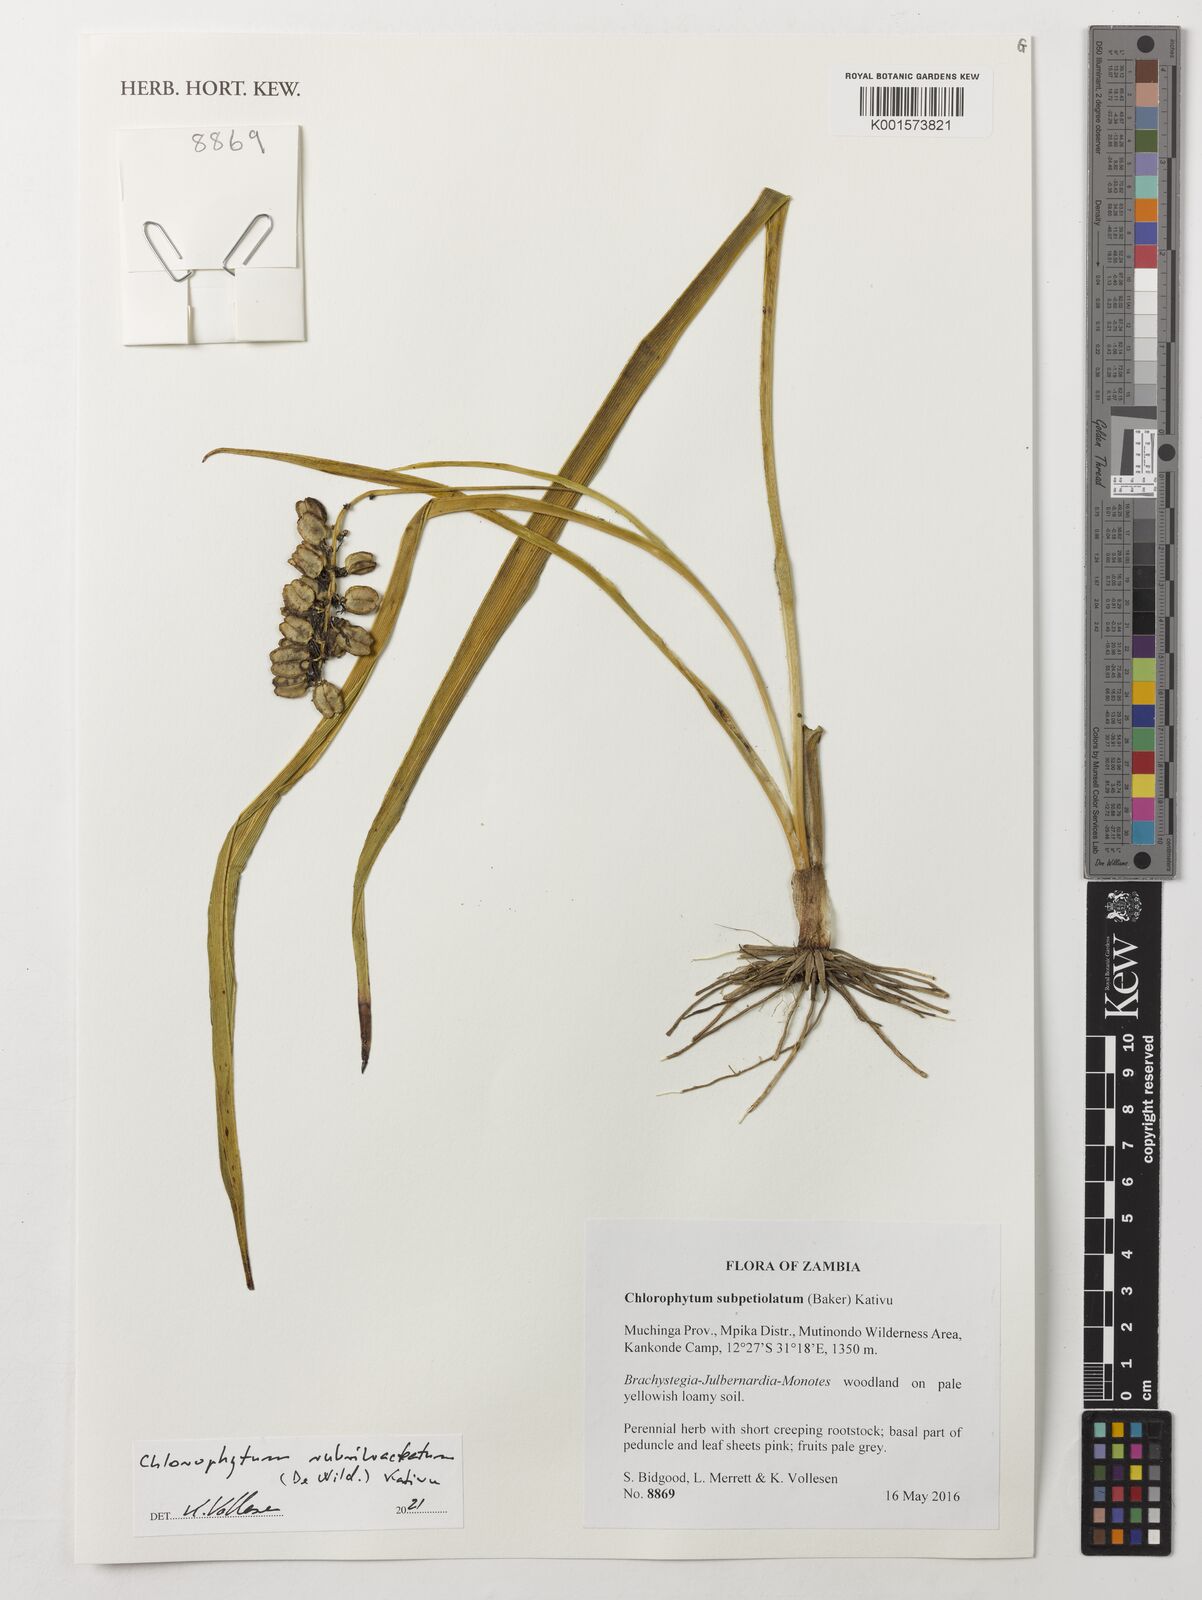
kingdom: Plantae
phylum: Tracheophyta
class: Liliopsida
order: Asparagales
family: Asparagaceae
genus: Chlorophytum
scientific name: Chlorophytum rubribracteatum
